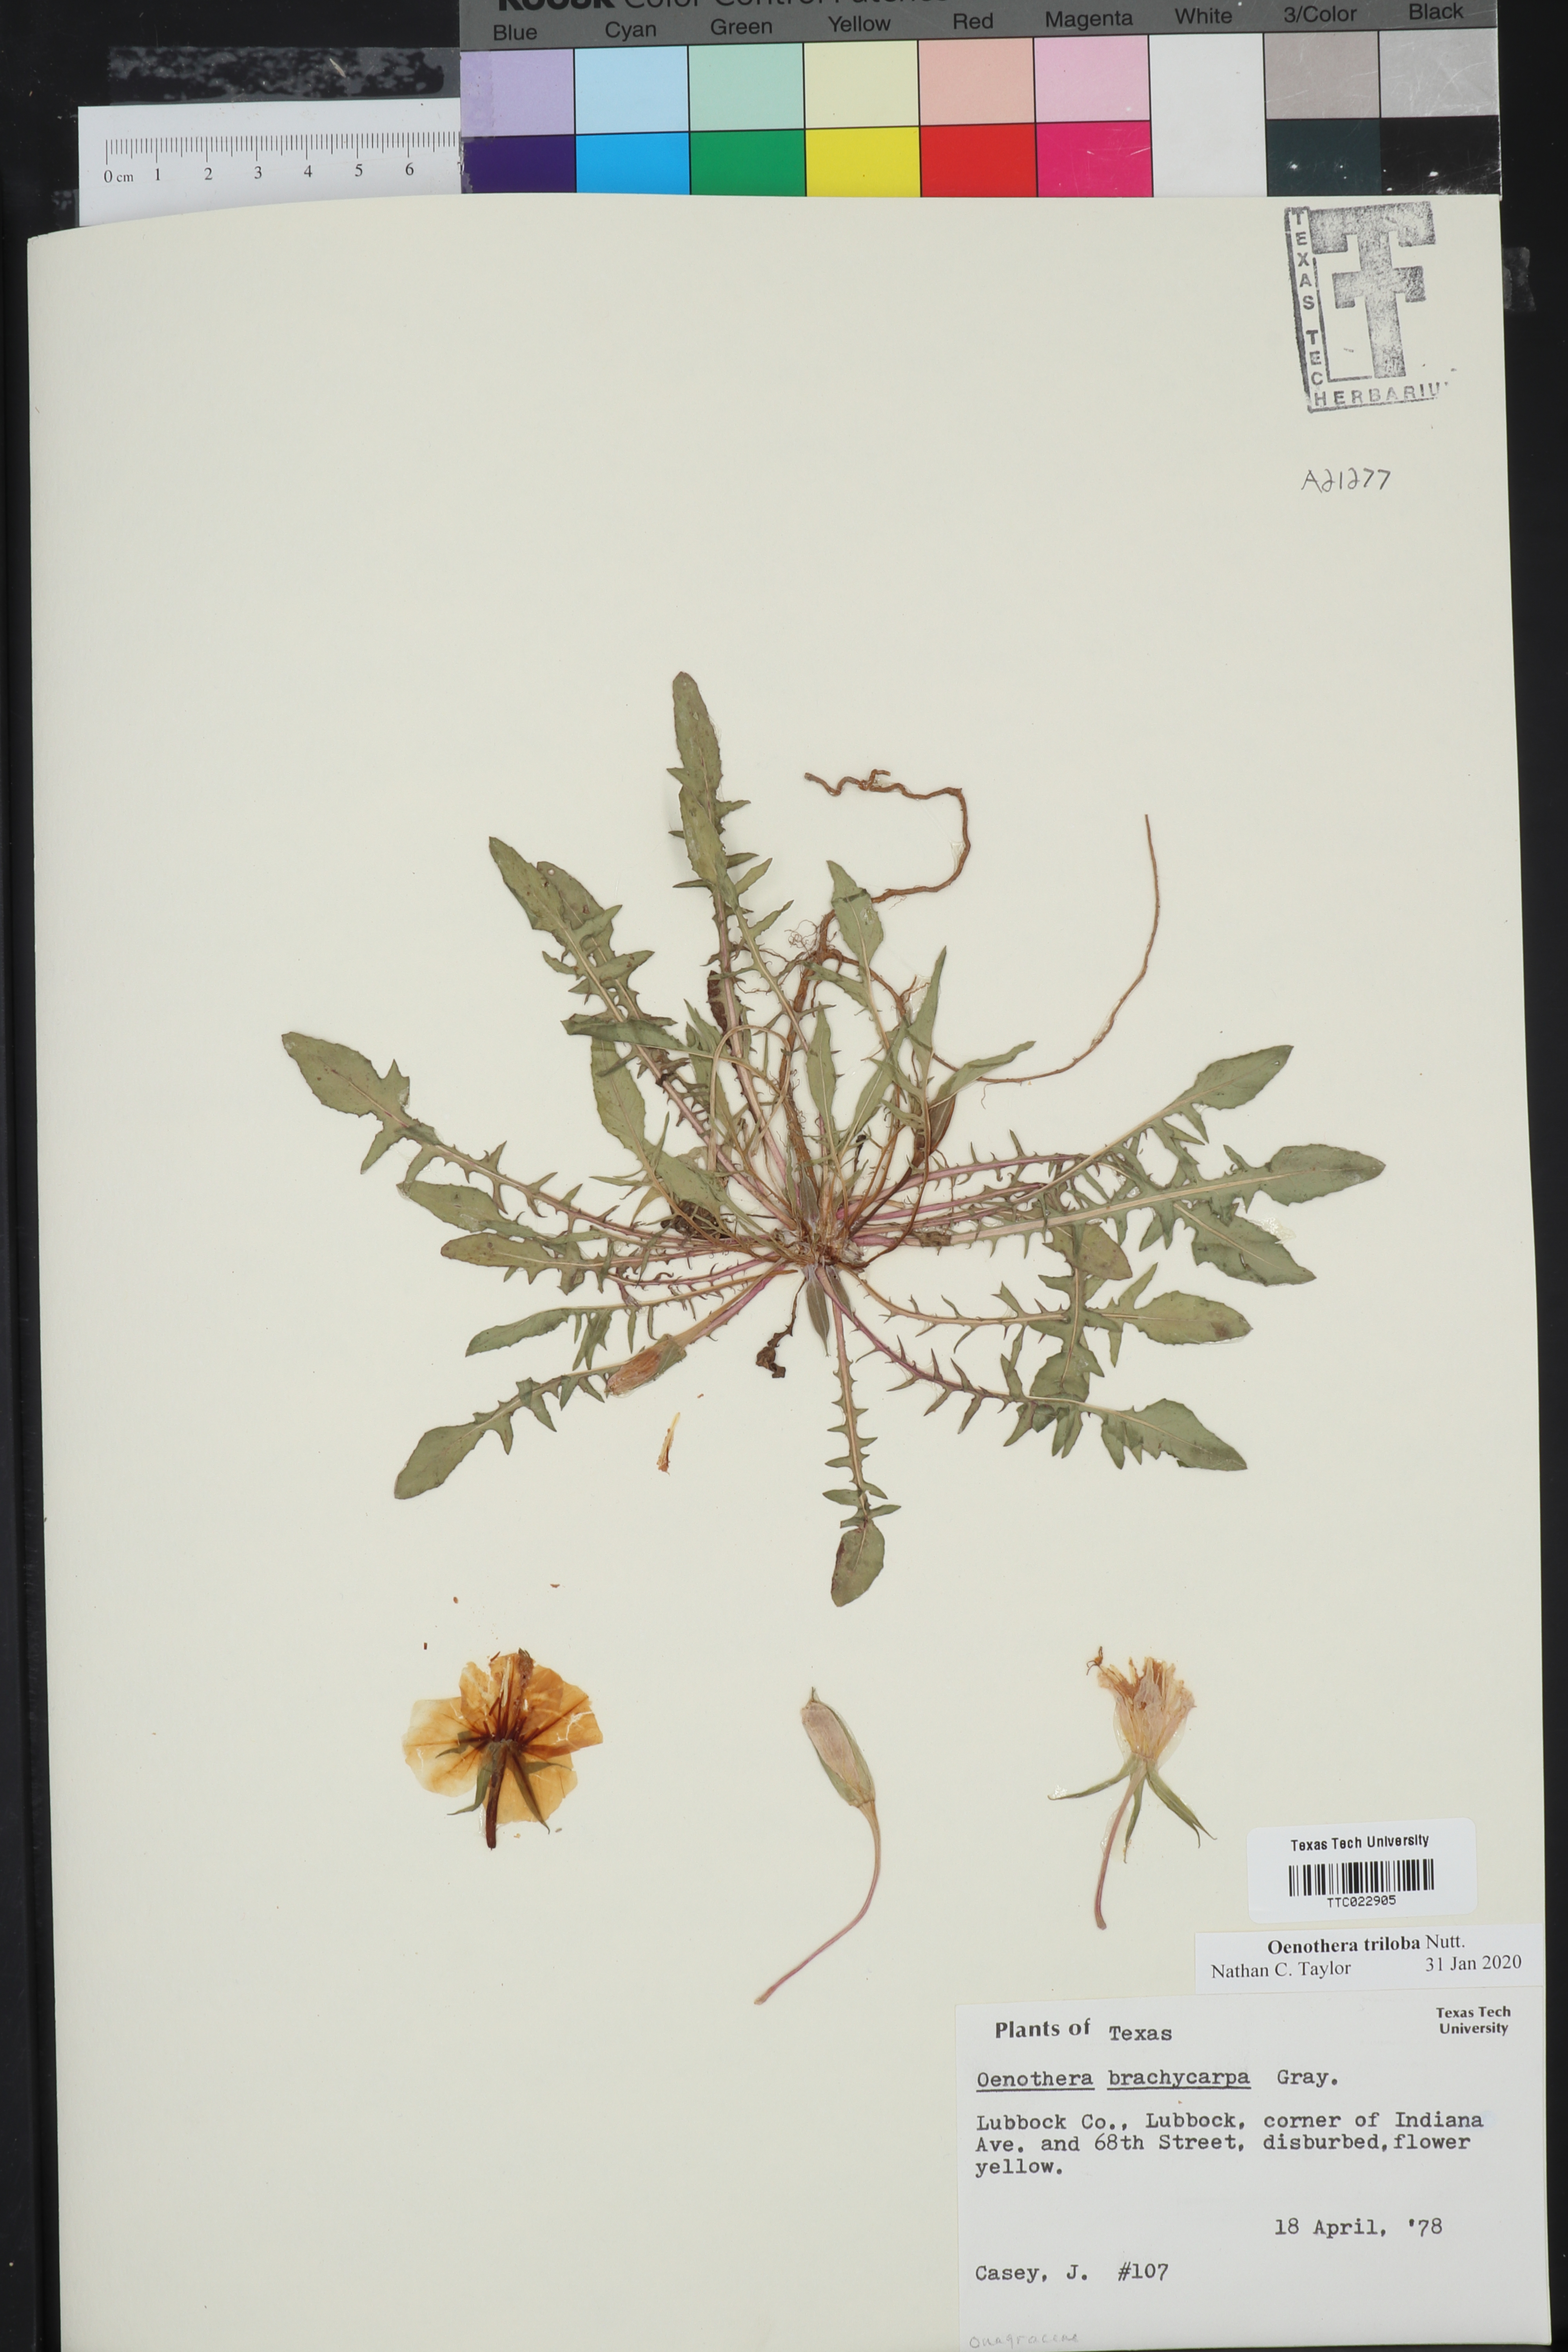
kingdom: Plantae
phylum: Tracheophyta
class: Magnoliopsida
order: Myrtales
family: Onagraceae
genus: Oenothera
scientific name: Oenothera brachycarpa
